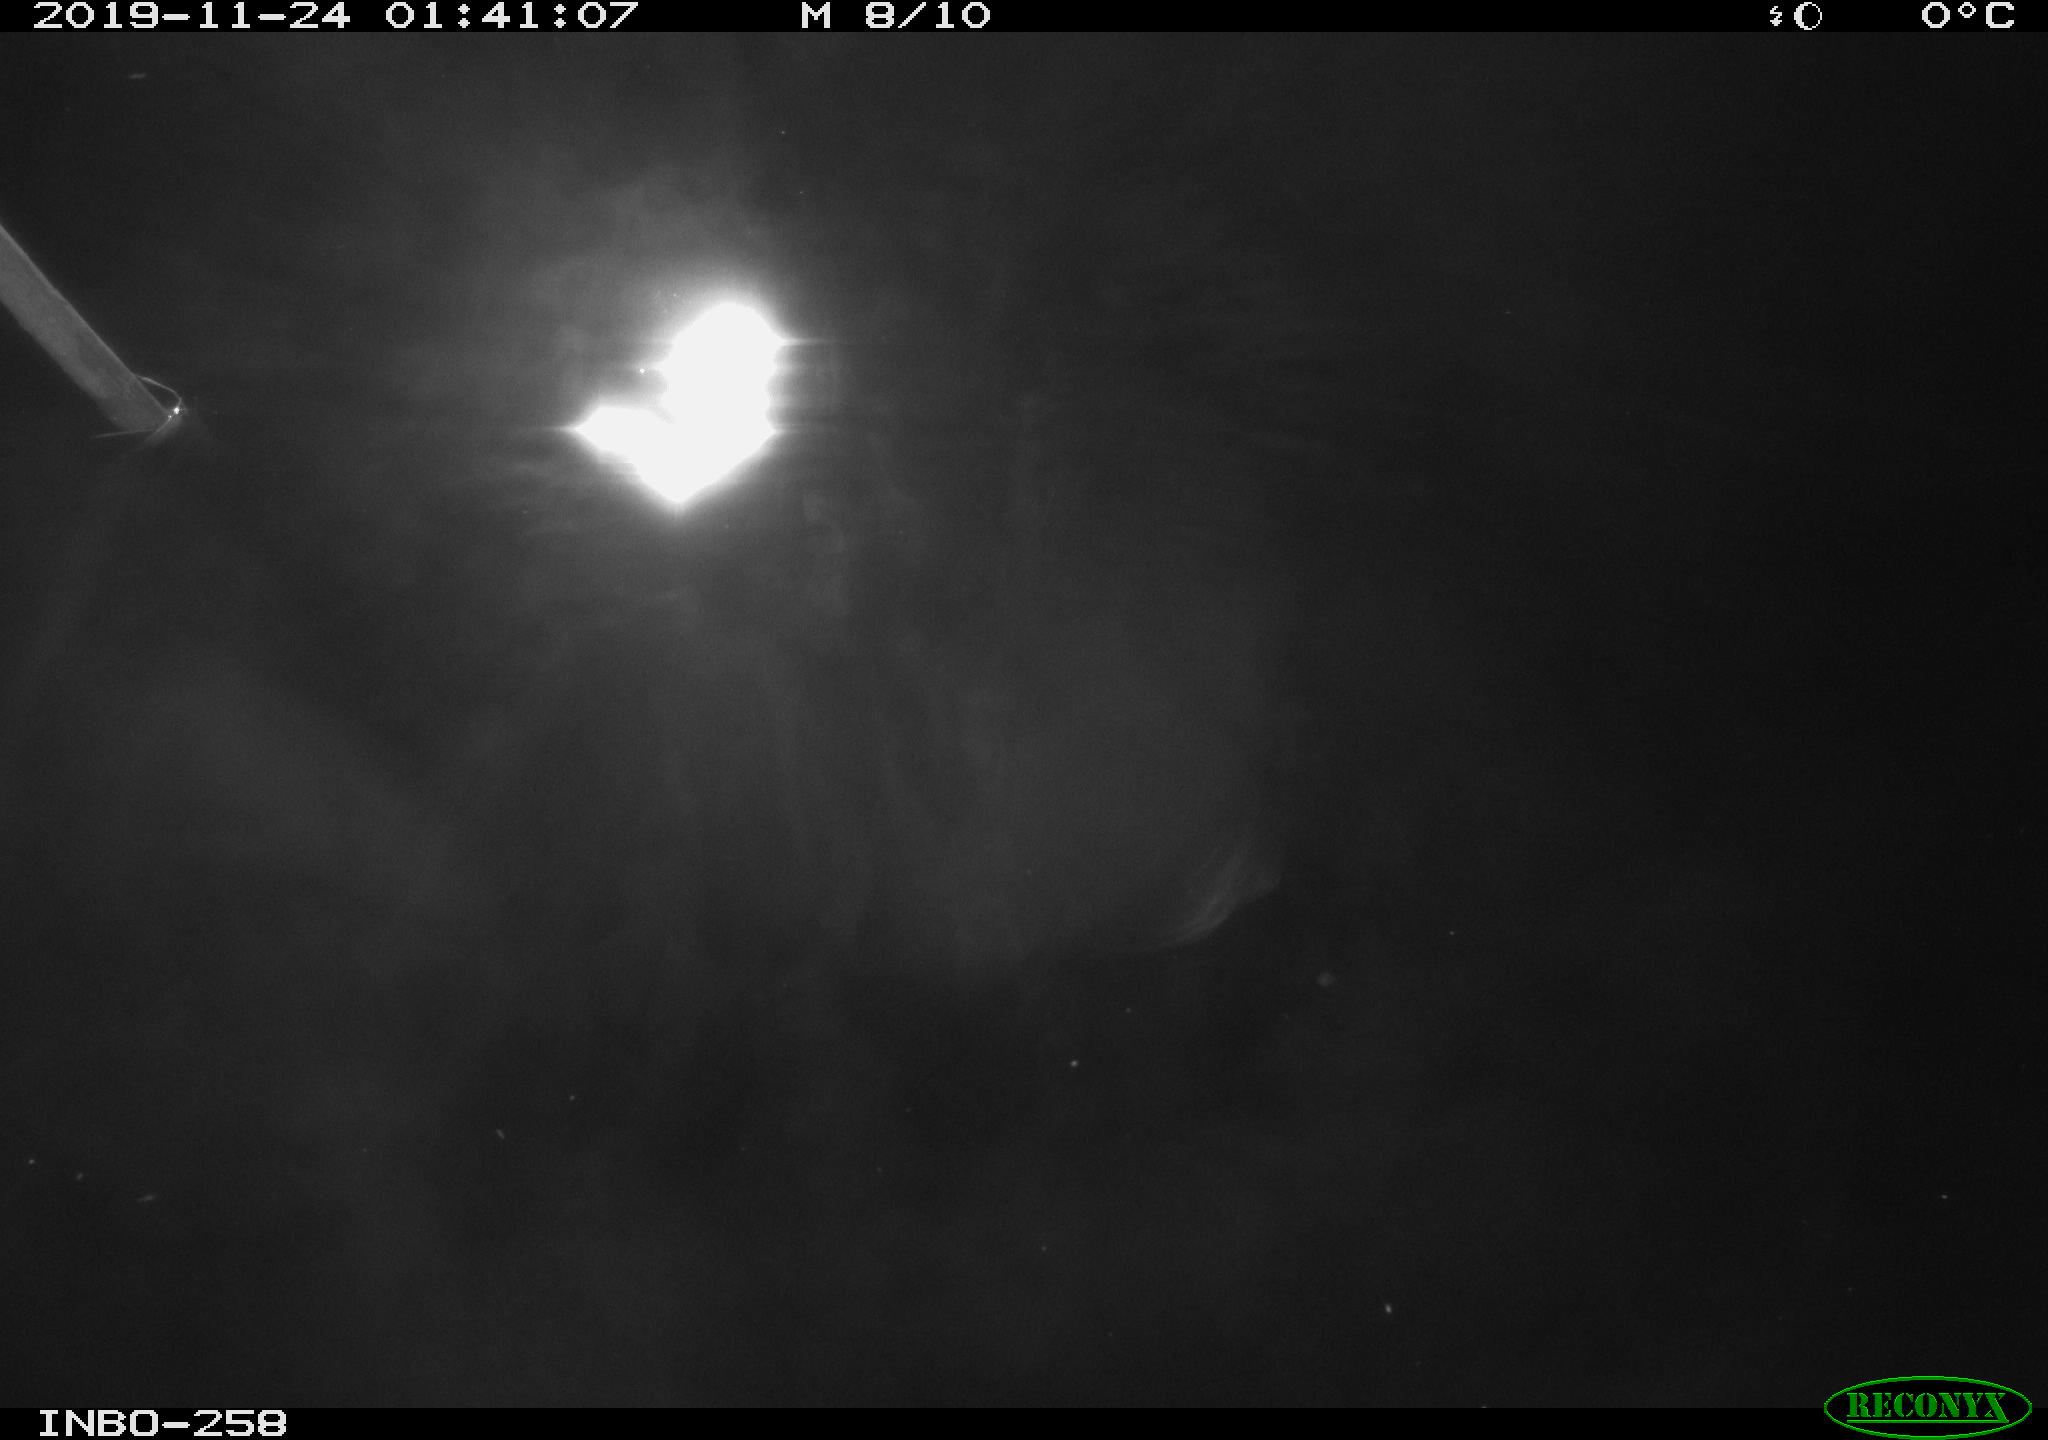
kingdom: Animalia
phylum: Chordata
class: Aves
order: Anseriformes
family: Anatidae
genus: Anas
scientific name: Anas platyrhynchos
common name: Mallard
